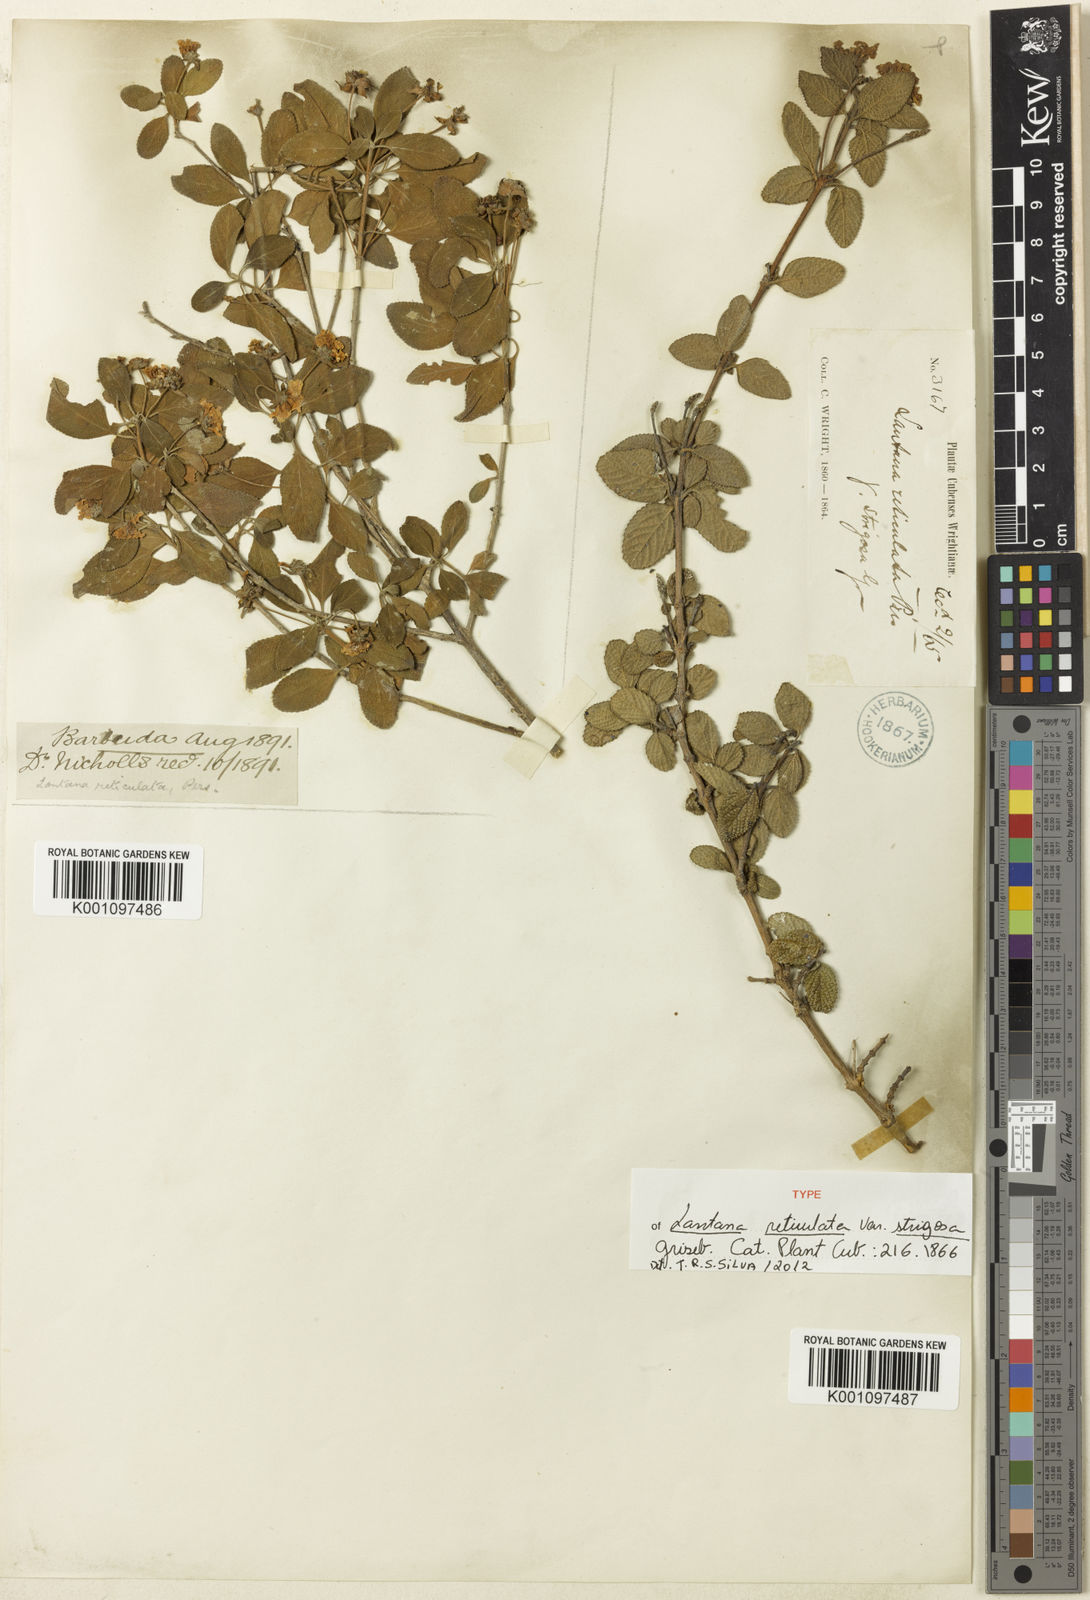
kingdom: Plantae
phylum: Tracheophyta
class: Magnoliopsida
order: Lamiales
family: Verbenaceae
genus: Lantana
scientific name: Lantana reticulata
